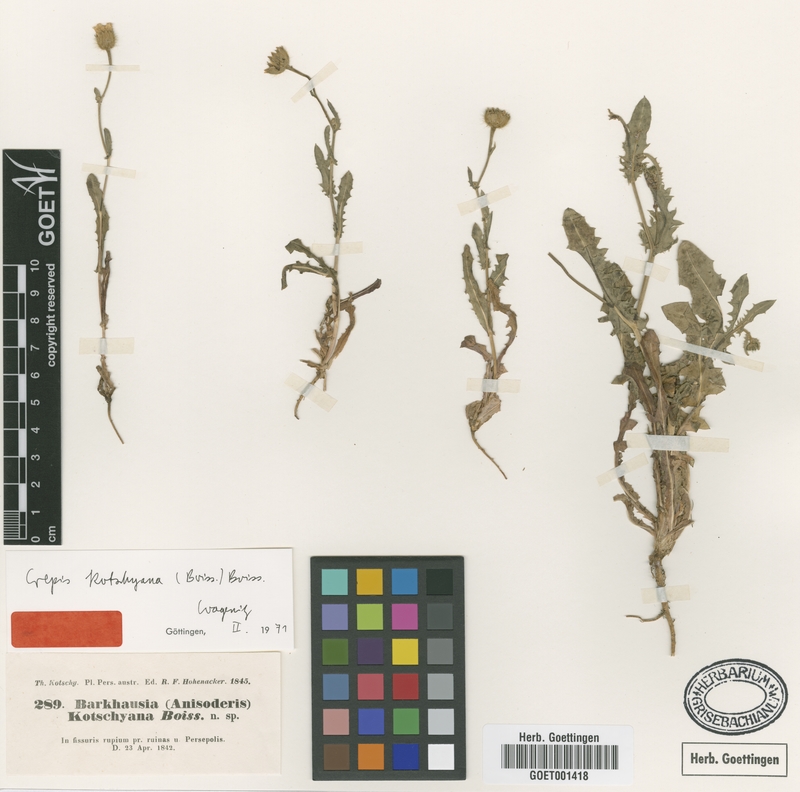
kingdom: Plantae
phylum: Tracheophyta
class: Magnoliopsida
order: Asterales
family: Asteraceae
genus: Crepis
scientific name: Crepis kotschyana
